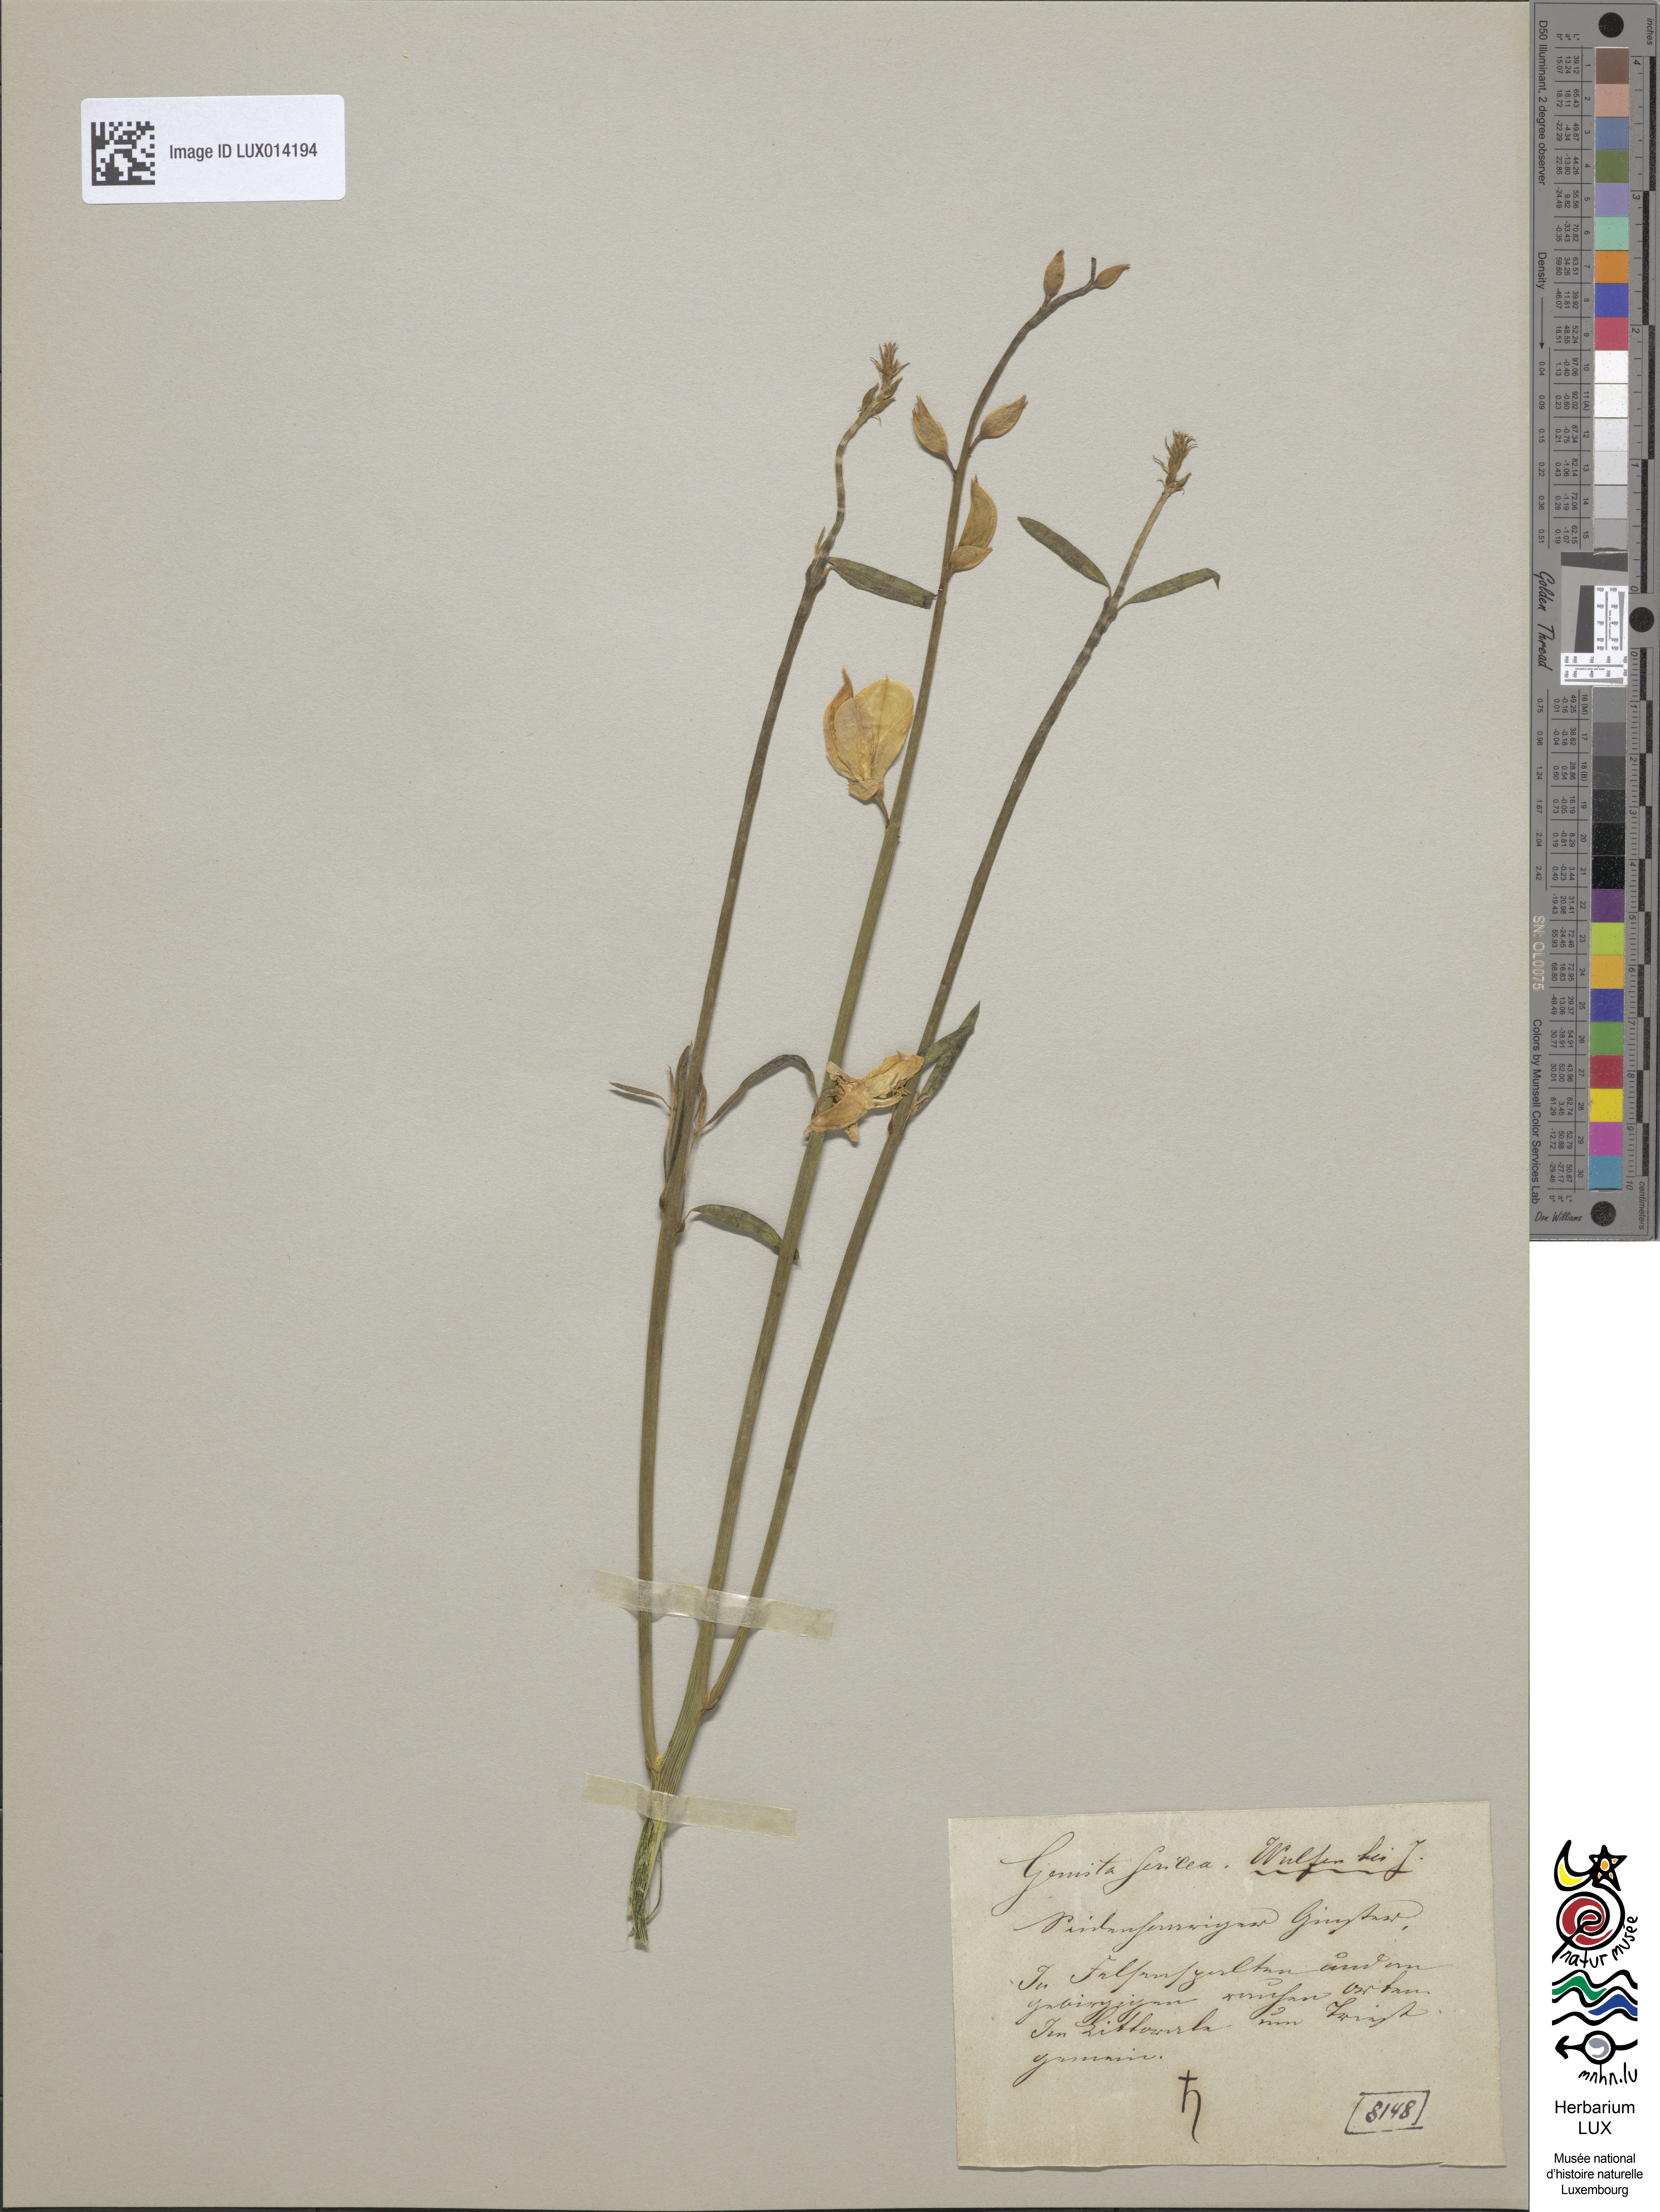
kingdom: Plantae
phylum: Tracheophyta
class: Magnoliopsida
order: Fabales
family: Fabaceae
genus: Genista
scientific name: Genista sericea
